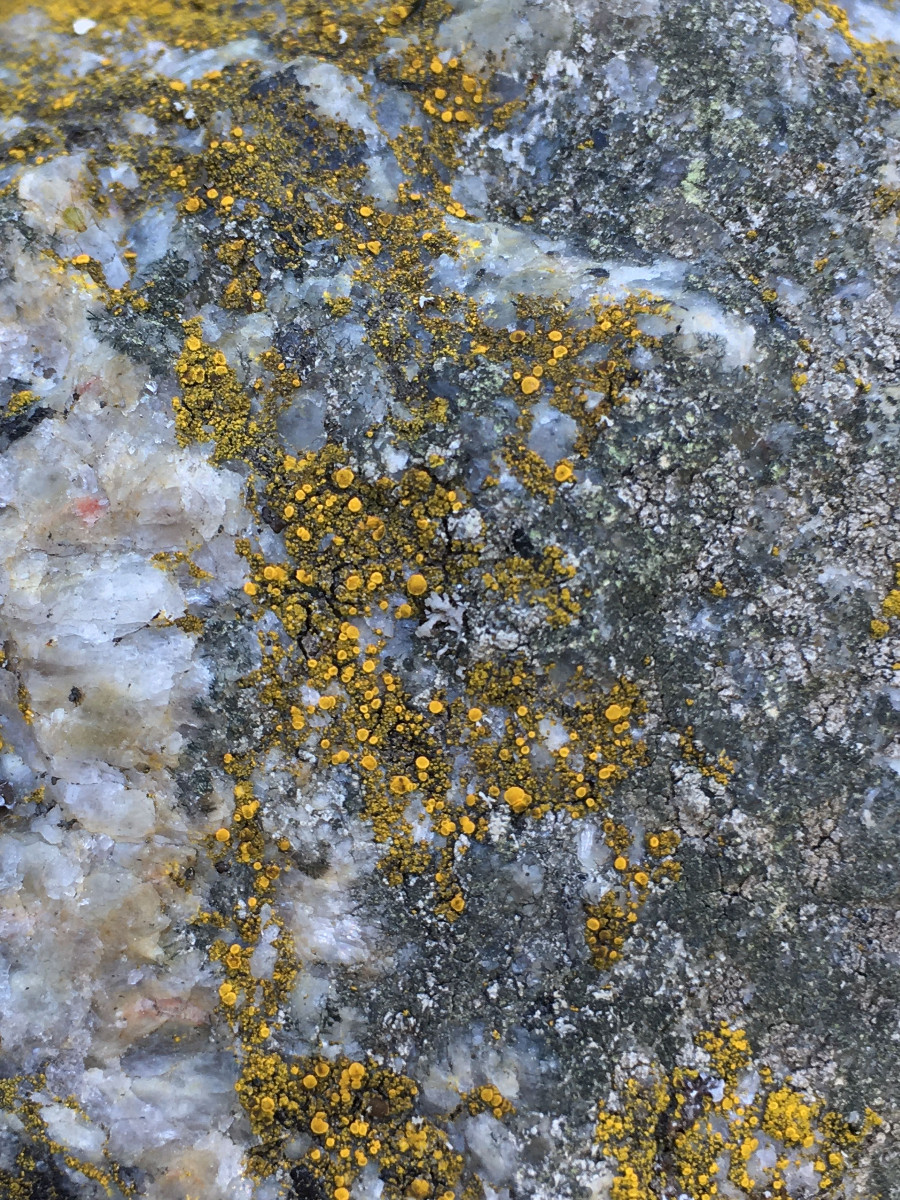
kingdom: Fungi
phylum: Ascomycota
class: Candelariomycetes
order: Candelariales
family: Candelariaceae
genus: Candelariella
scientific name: Candelariella vitellina
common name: almindelig æggeblommelav
